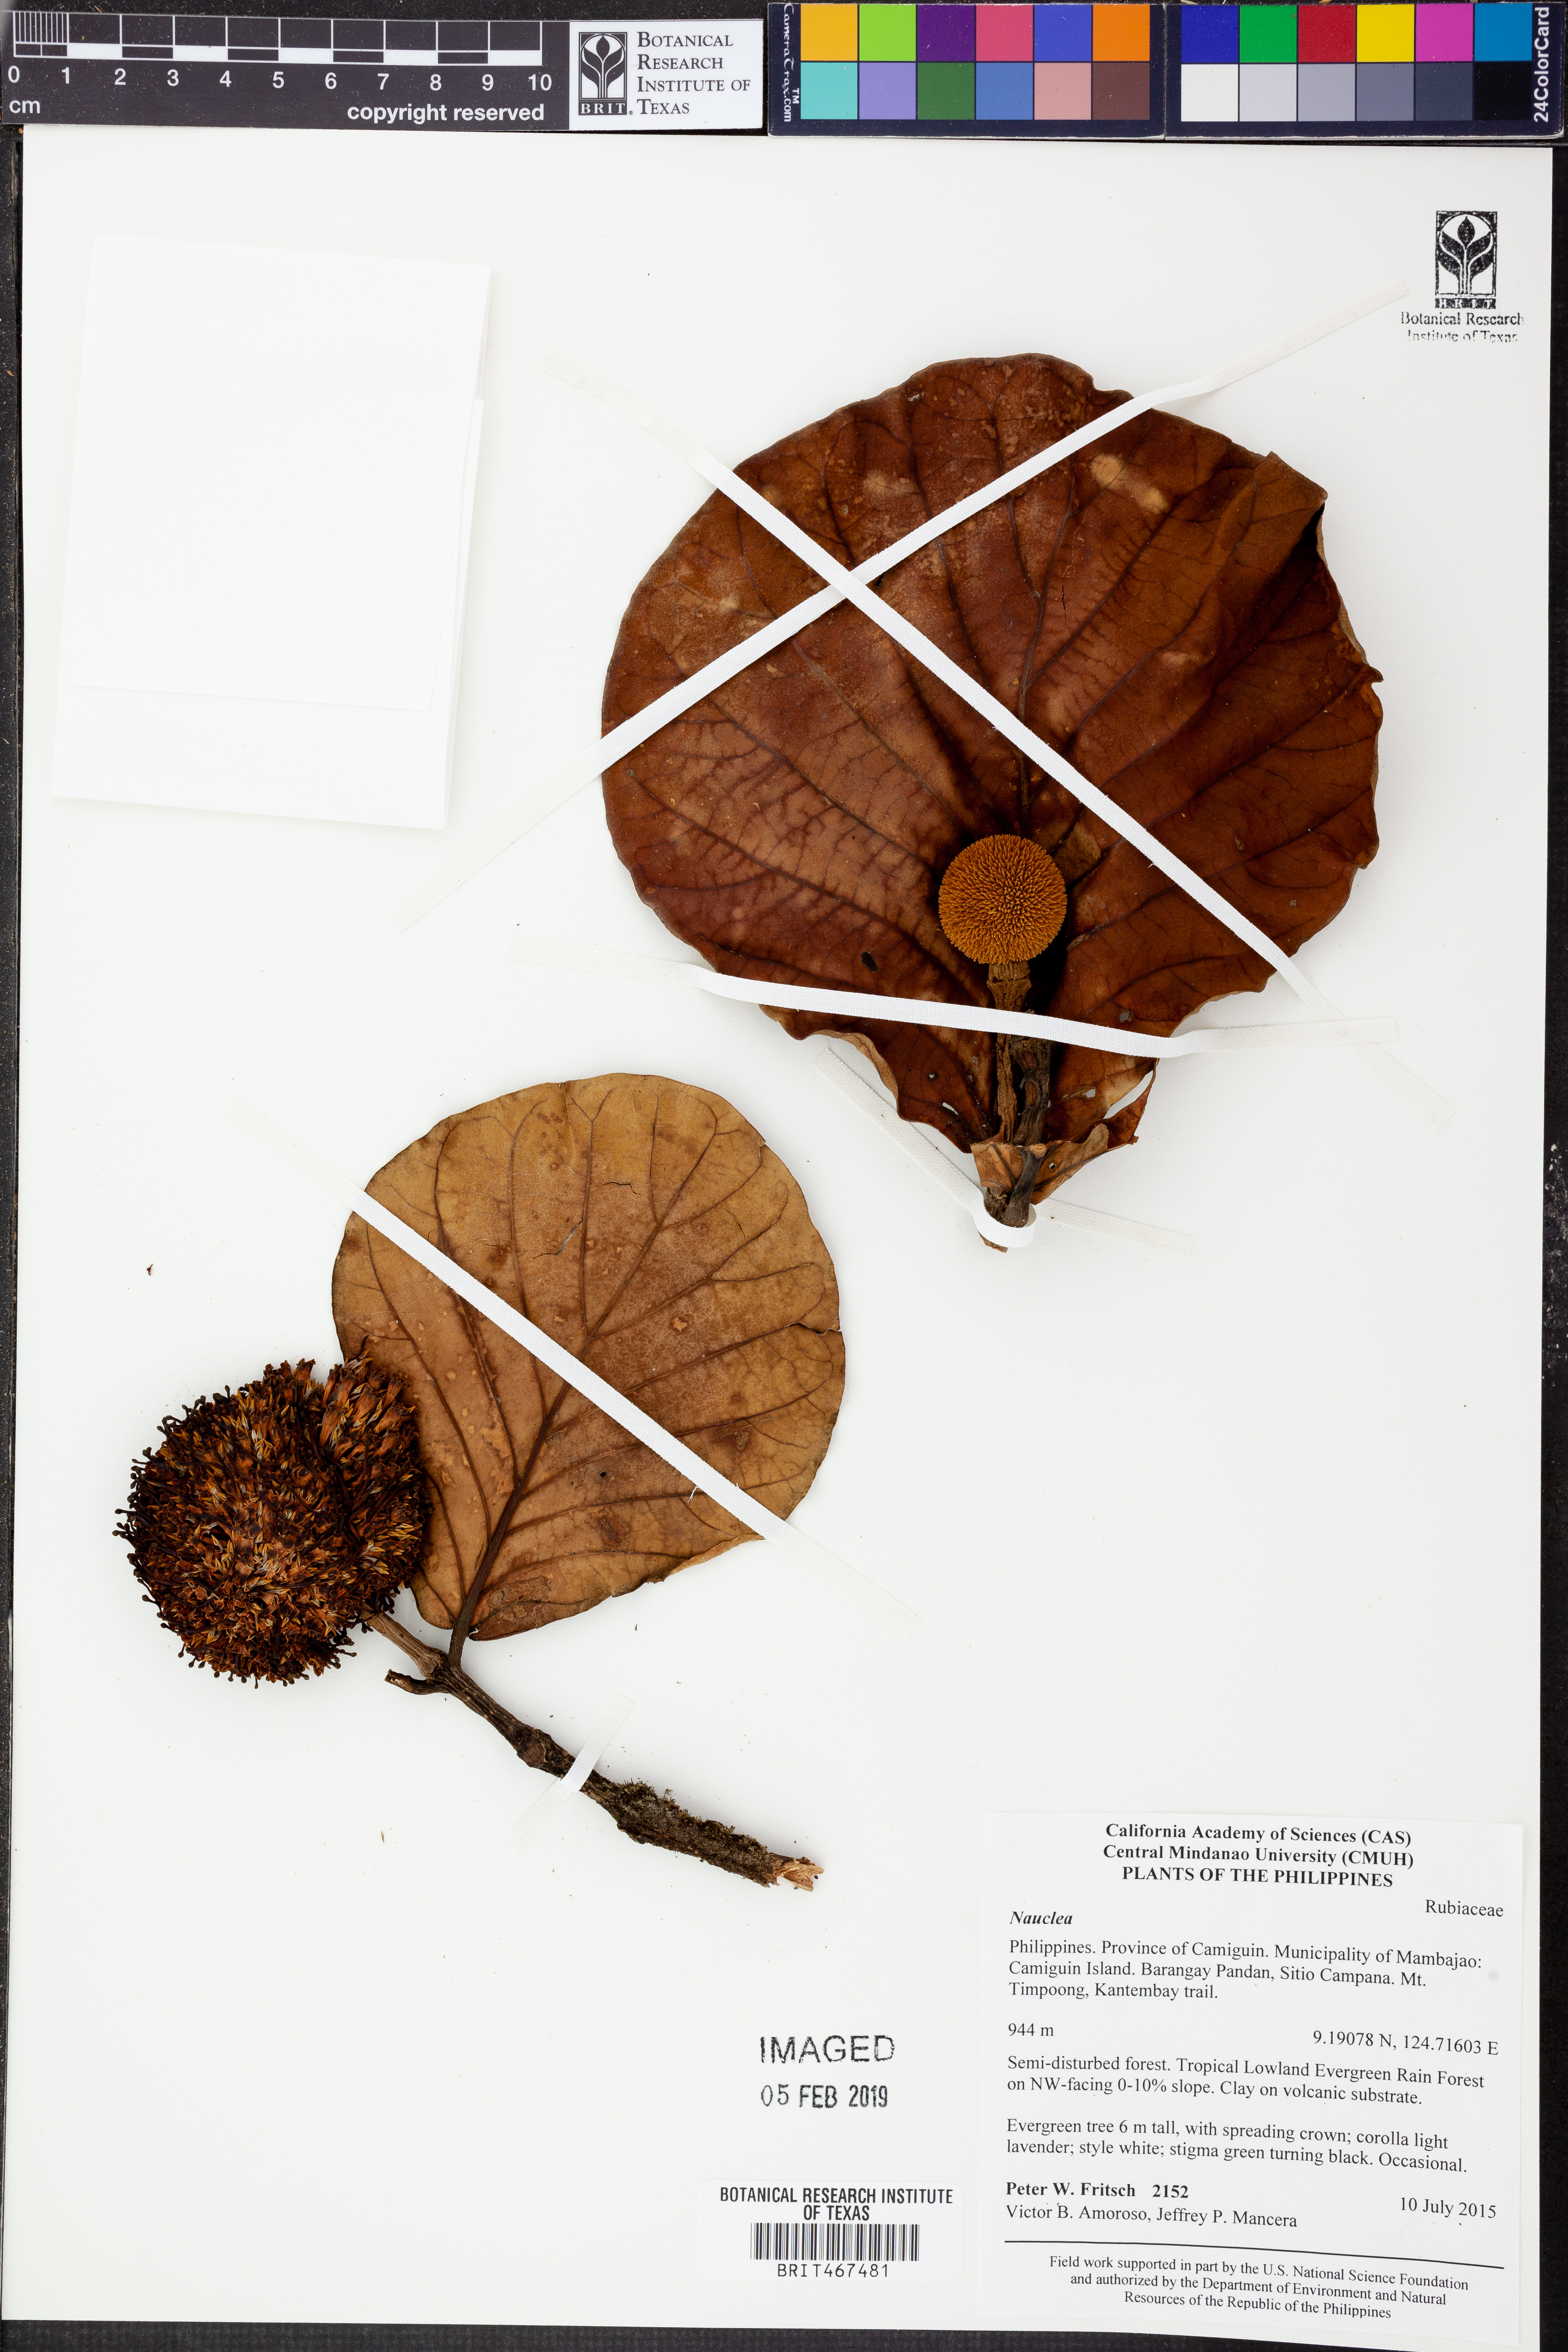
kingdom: Plantae
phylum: Tracheophyta
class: Magnoliopsida
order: Gentianales
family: Rubiaceae
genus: Nauclea
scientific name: Nauclea
